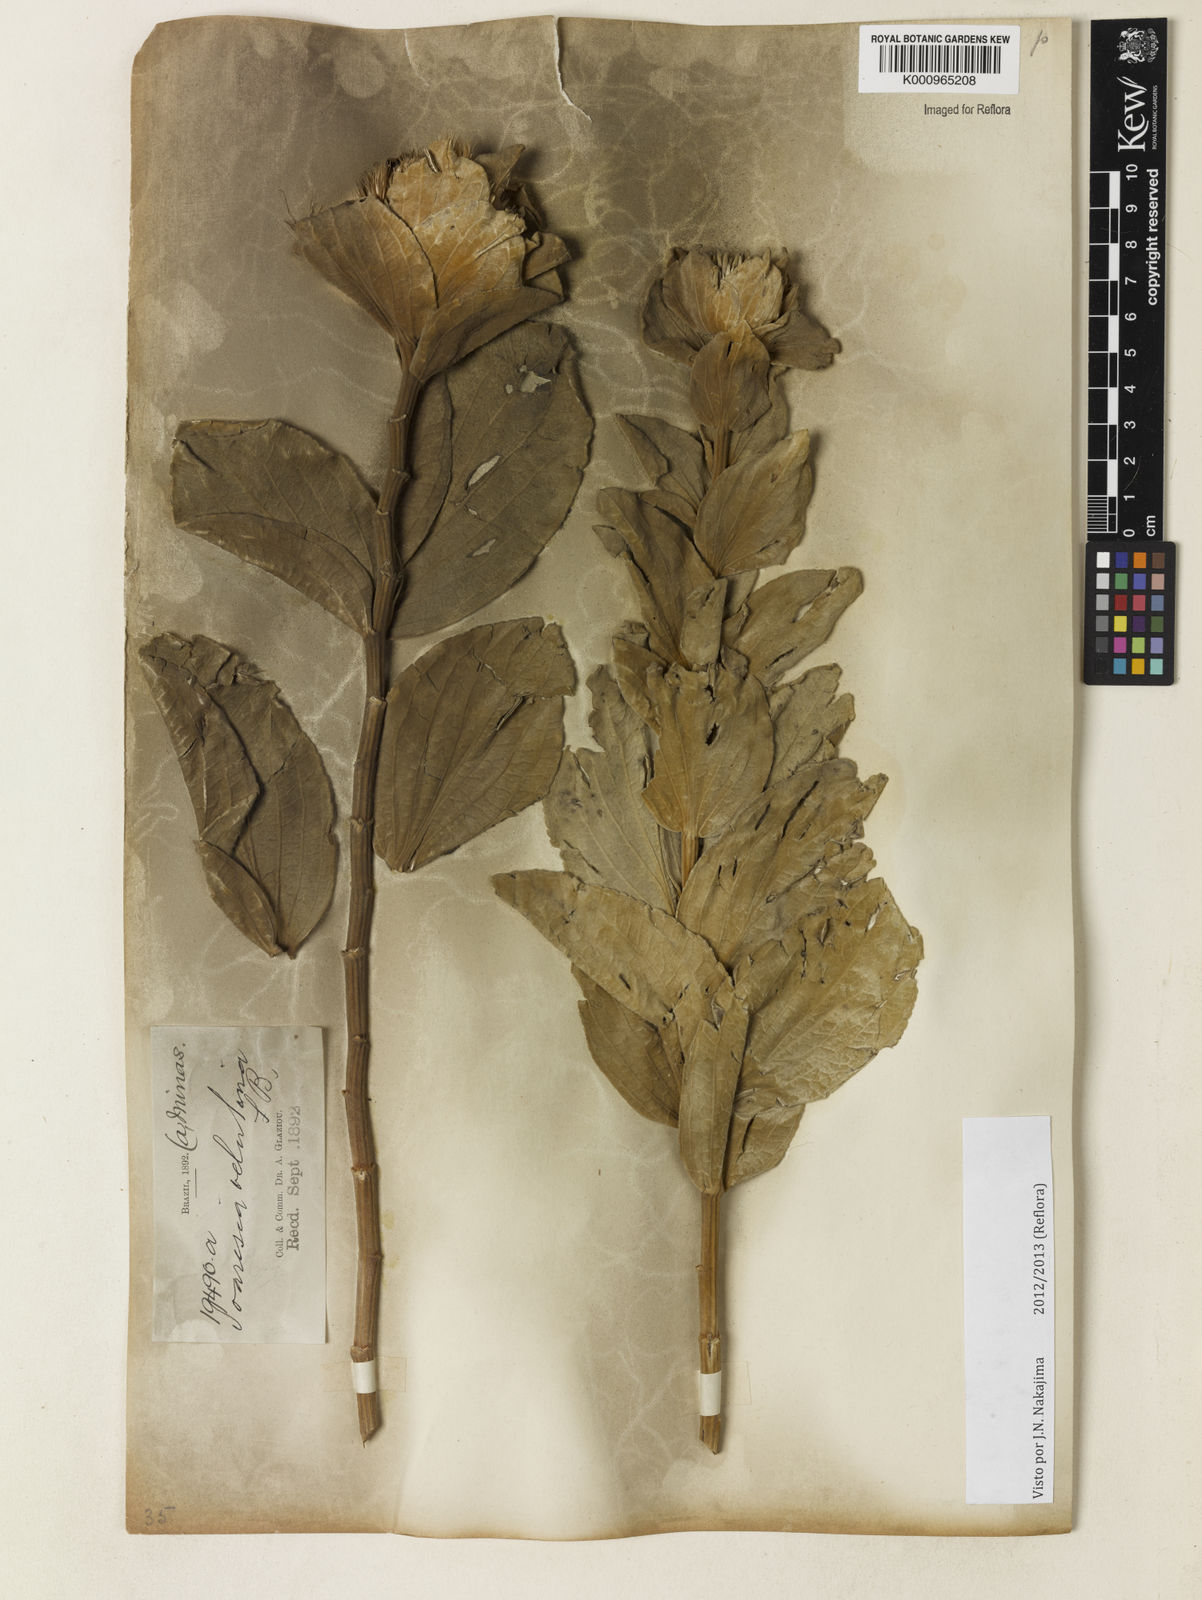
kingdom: Plantae
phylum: Tracheophyta
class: Magnoliopsida
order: Asterales
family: Asteraceae
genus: Soaresia
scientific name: Soaresia velutina
